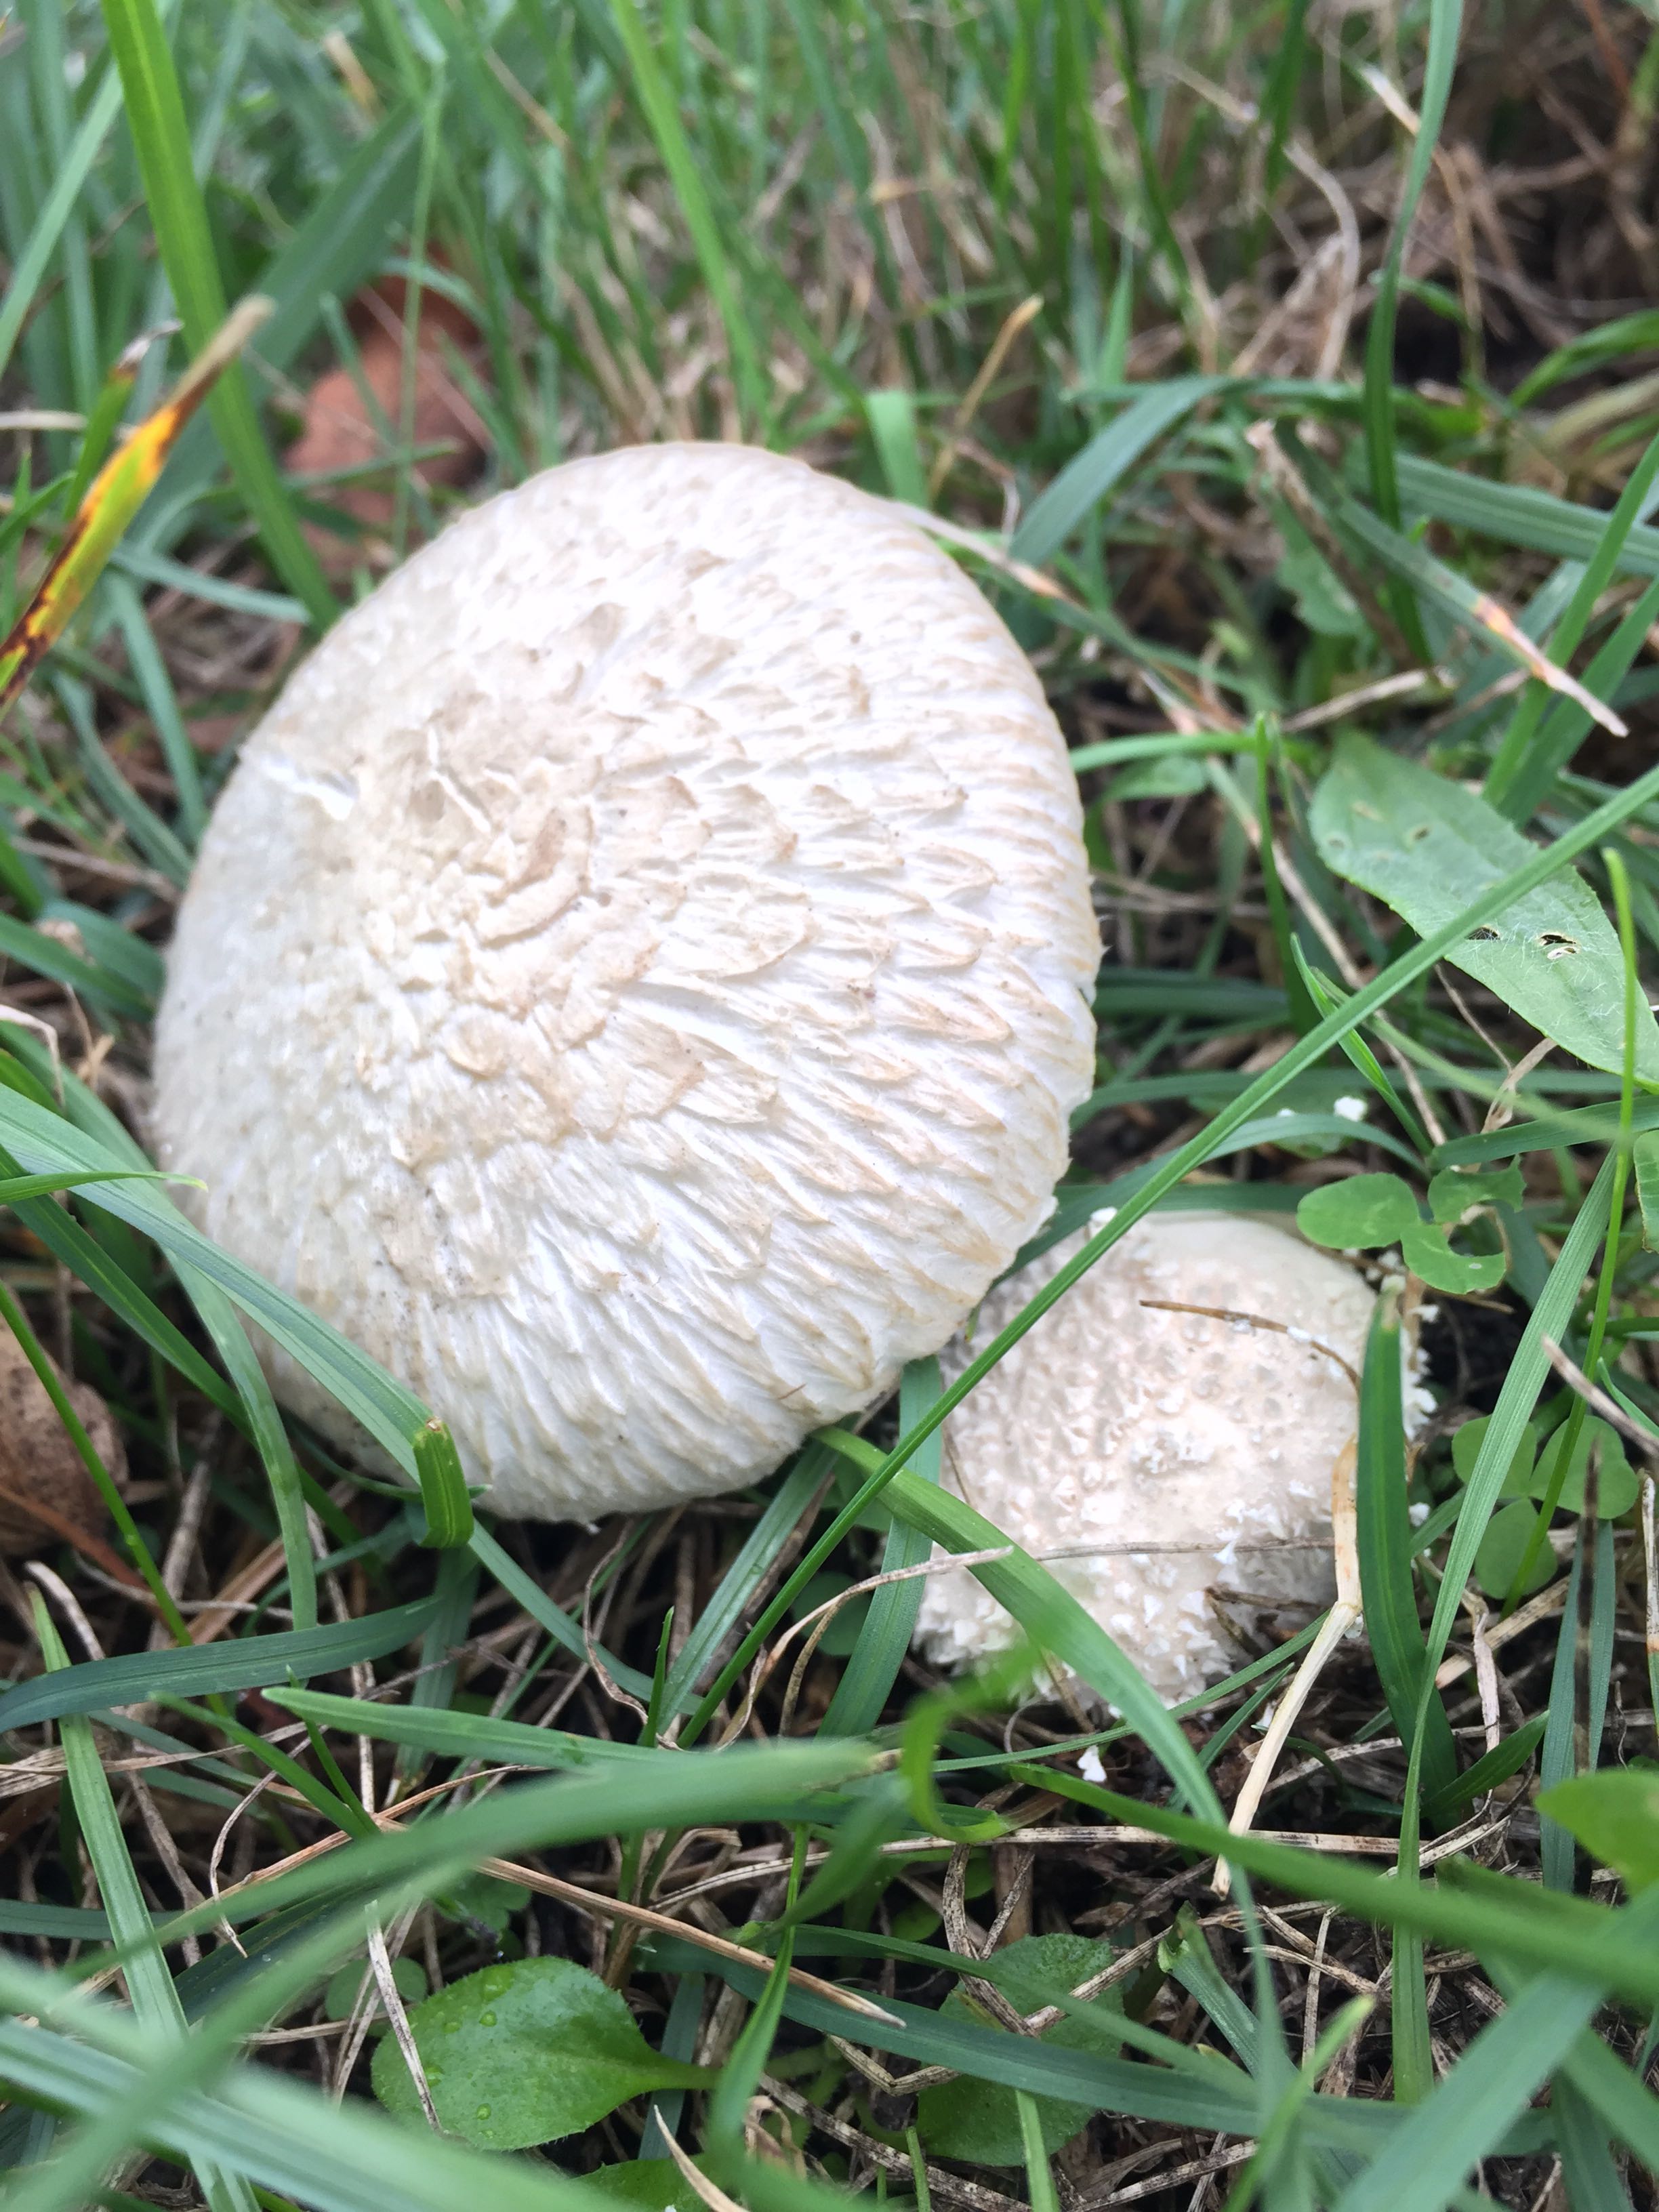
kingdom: Fungi
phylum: Basidiomycota
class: Agaricomycetes
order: Agaricales
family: Agaricaceae
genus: Agaricus
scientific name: Agaricus campestris
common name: mark-champignon
